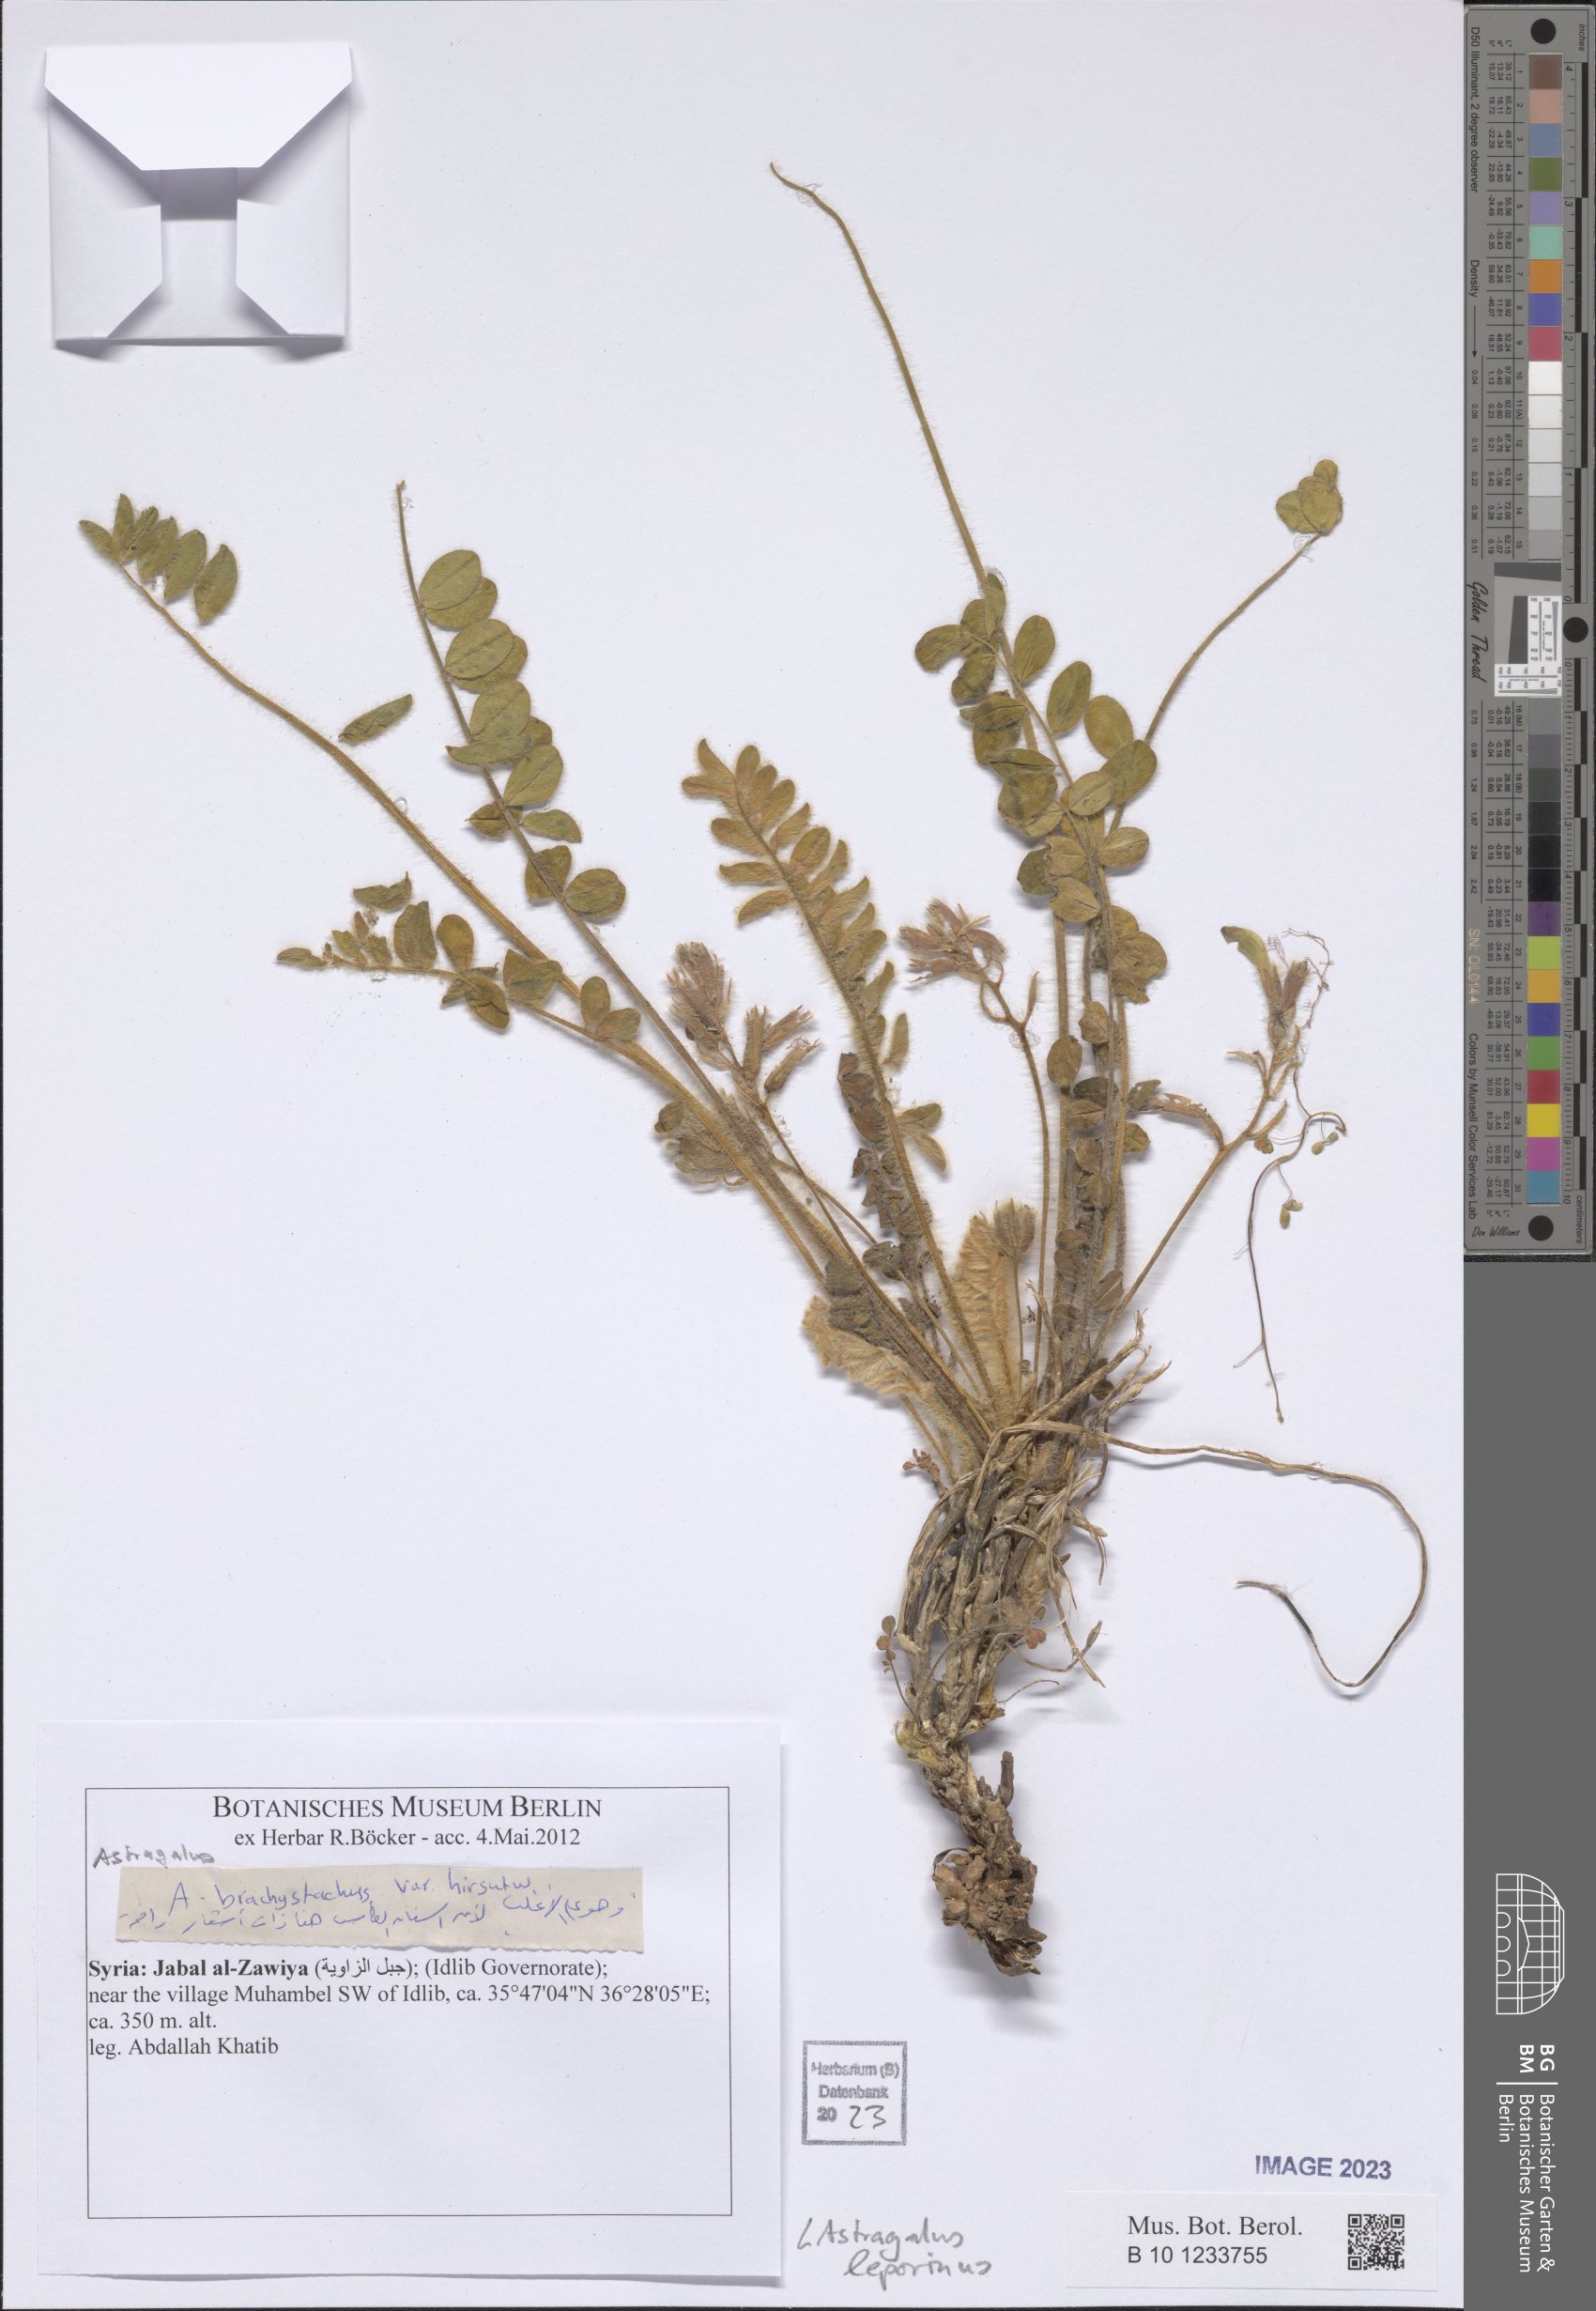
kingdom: Plantae
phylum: Tracheophyta
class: Magnoliopsida
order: Fabales
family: Fabaceae
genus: Astragalus
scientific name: Astragalus leporinus
